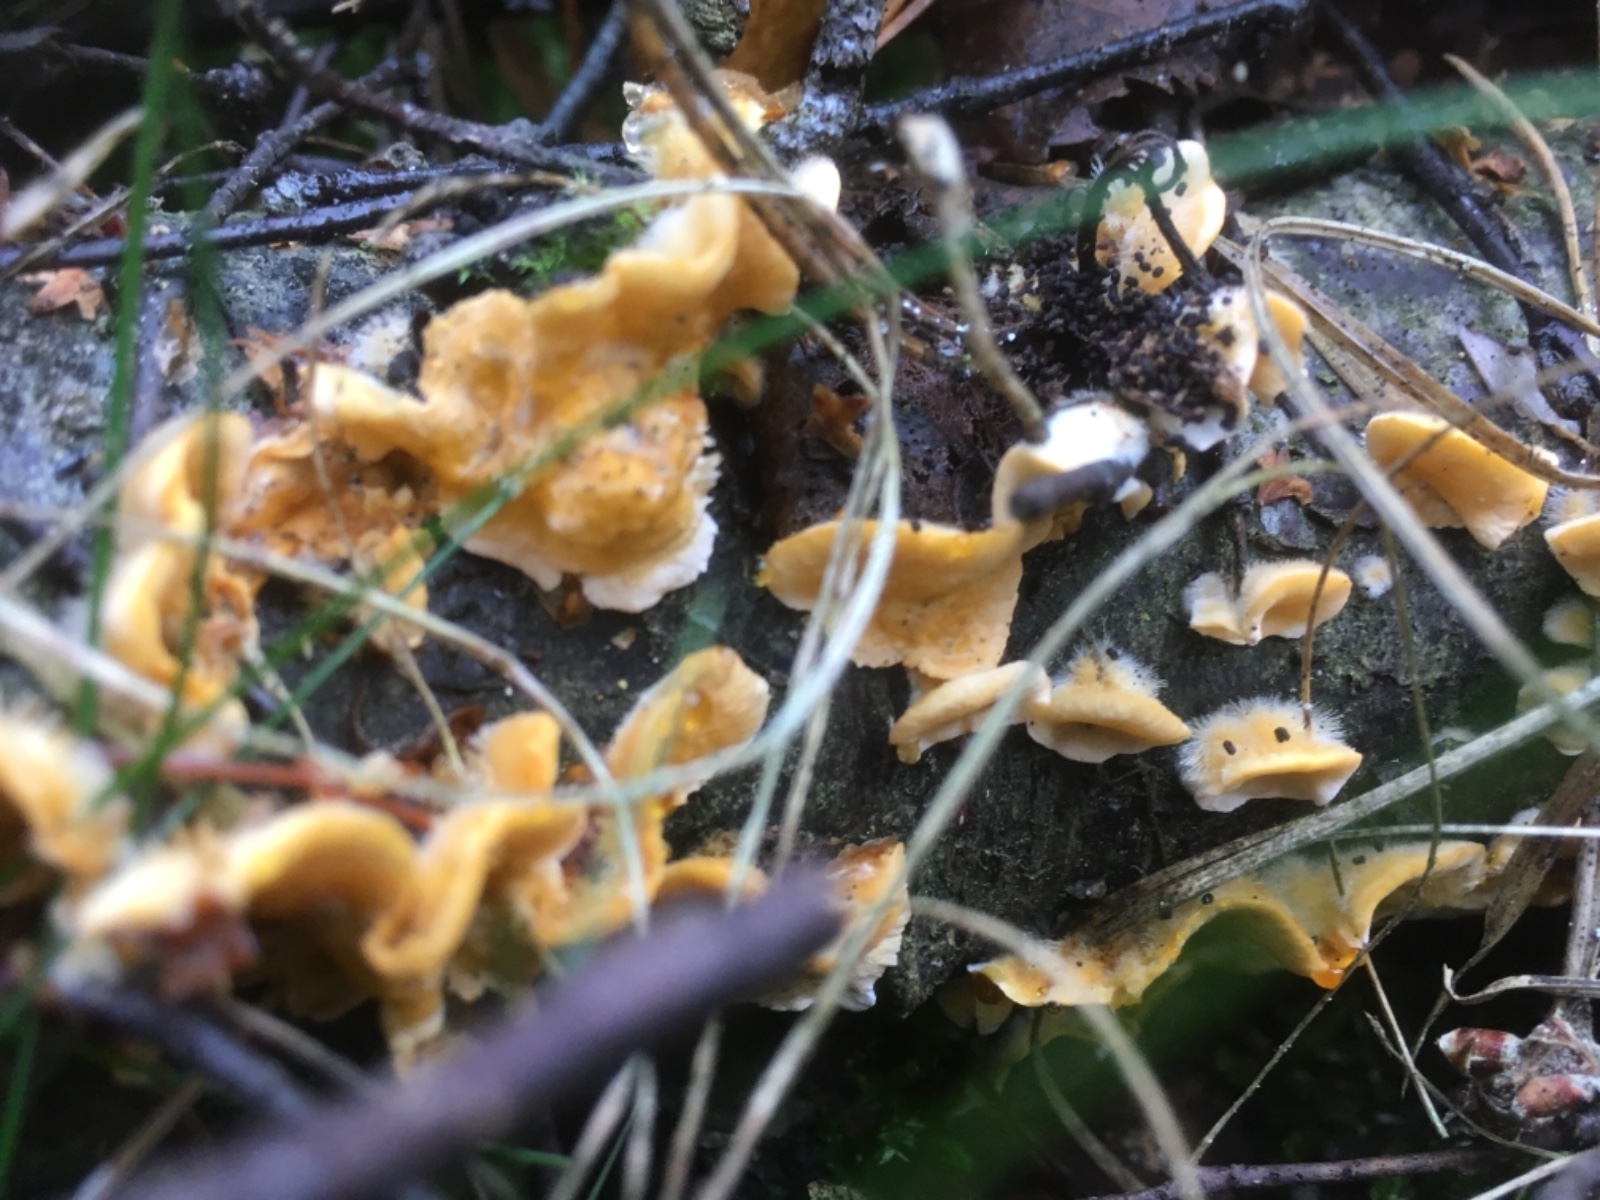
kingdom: Fungi
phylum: Basidiomycota
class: Agaricomycetes
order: Russulales
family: Stereaceae
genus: Stereum
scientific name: Stereum hirsutum
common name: håret lædersvamp
